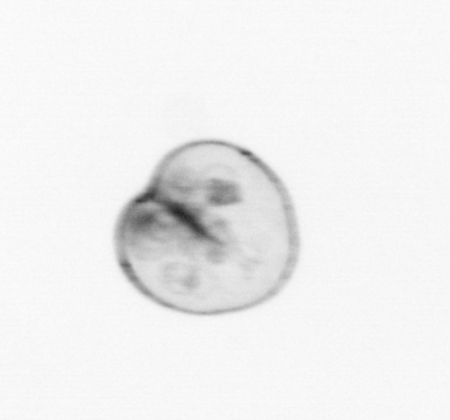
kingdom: Chromista
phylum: Myzozoa
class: Dinophyceae
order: Noctilucales
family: Noctilucaceae
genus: Noctiluca
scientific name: Noctiluca scintillans
